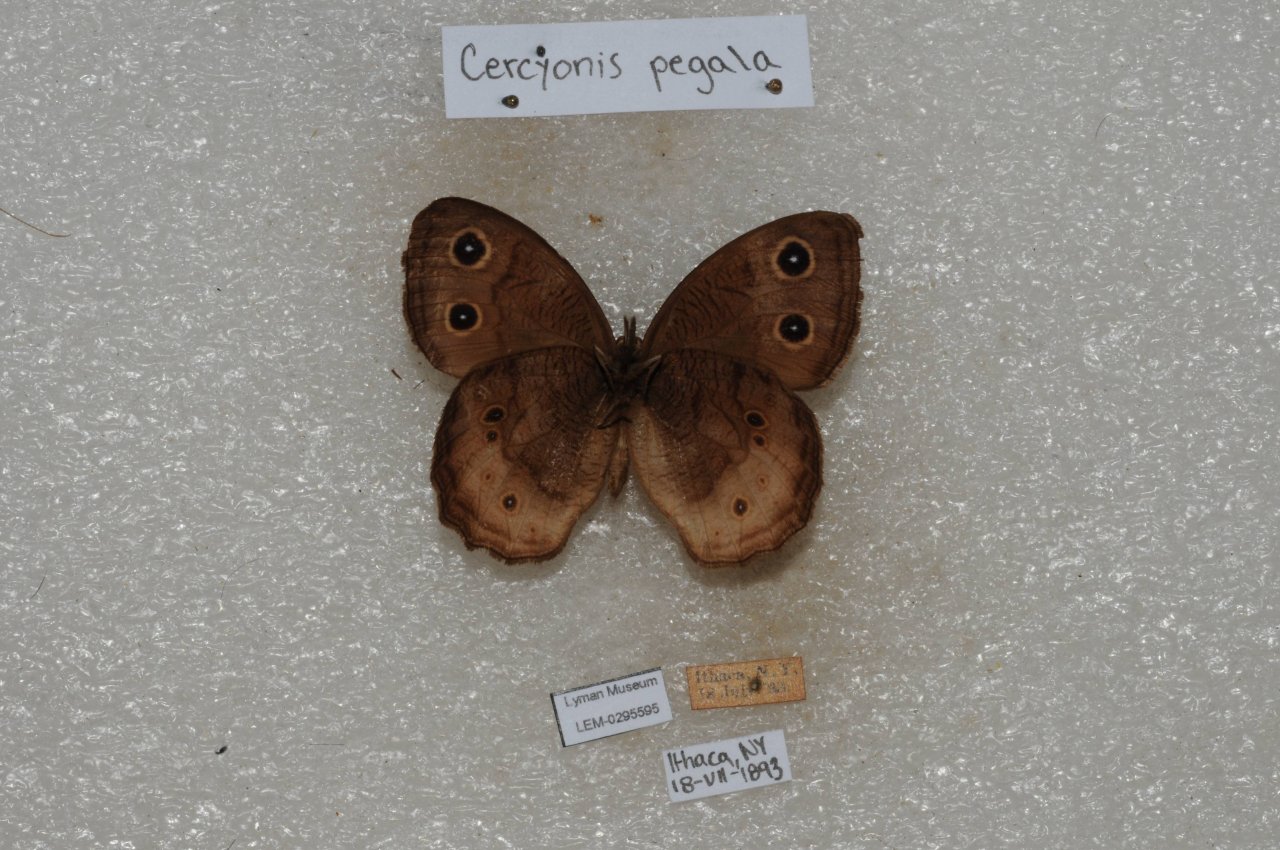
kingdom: Animalia
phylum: Arthropoda
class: Insecta
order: Lepidoptera
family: Nymphalidae
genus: Cercyonis
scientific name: Cercyonis pegala
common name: Common Wood-Nymph
